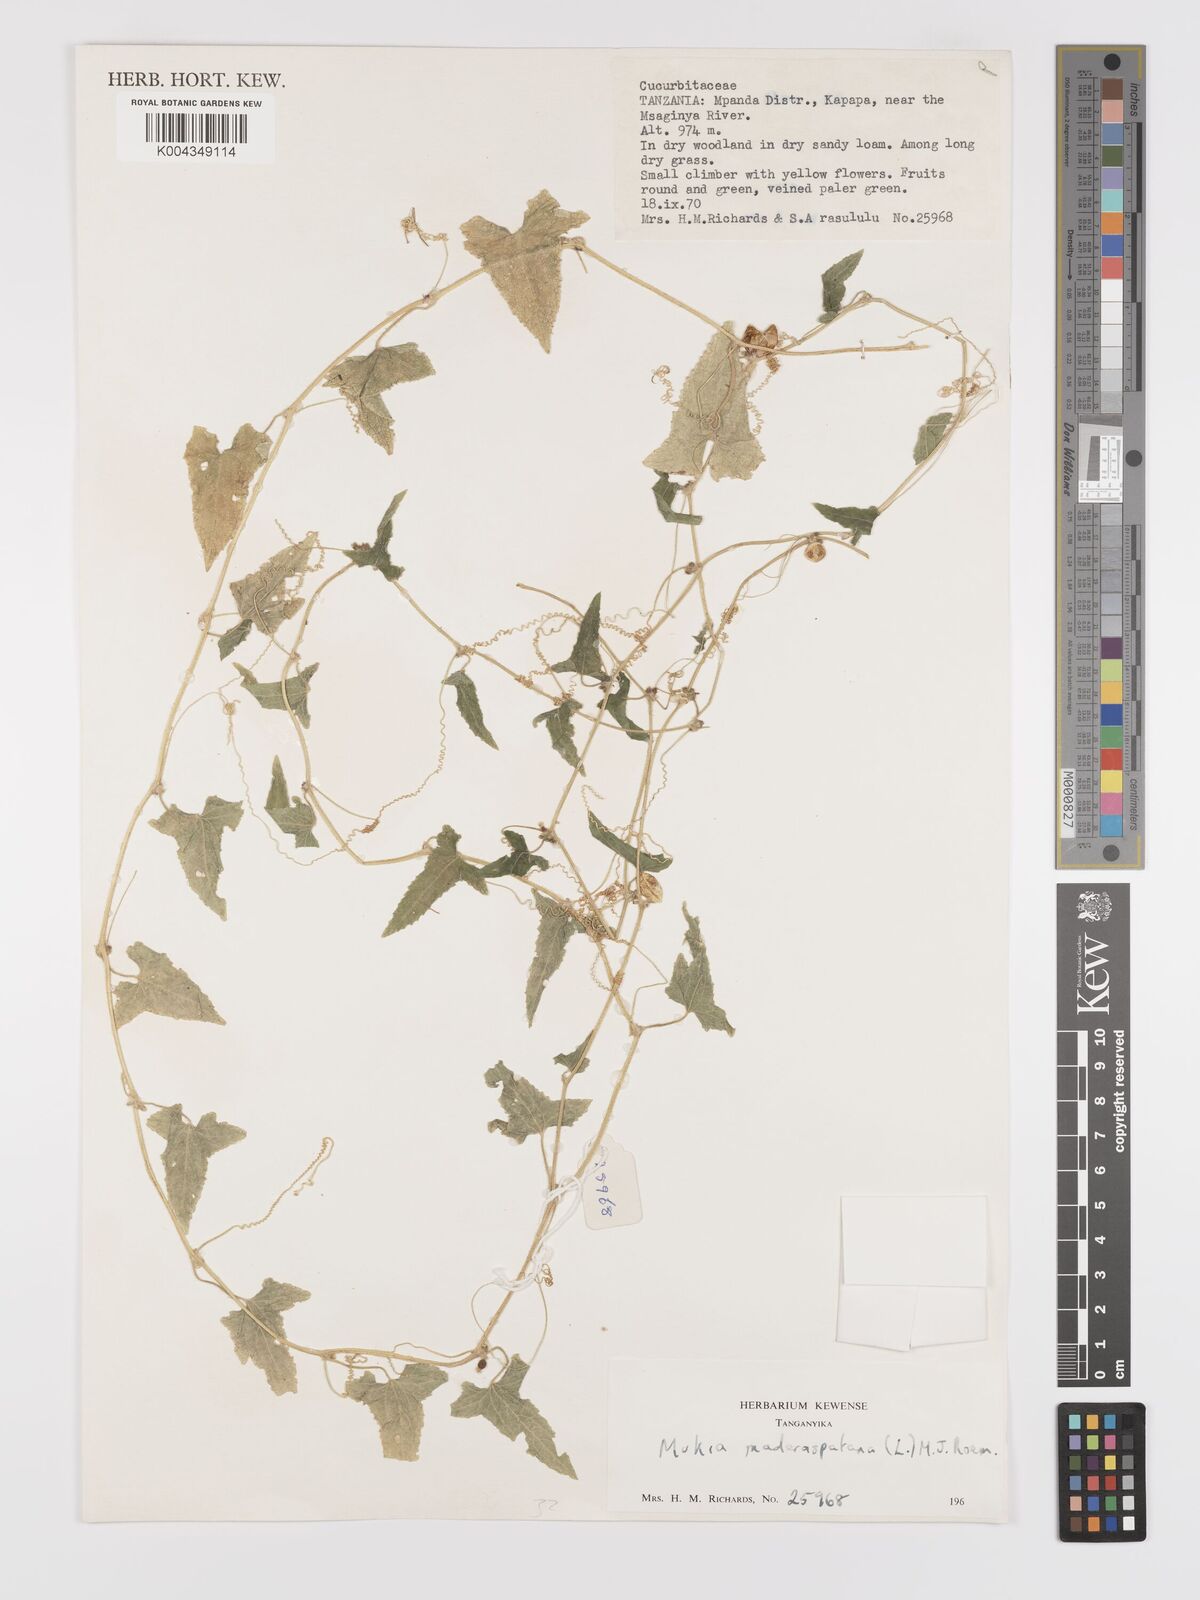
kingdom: Plantae
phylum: Tracheophyta
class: Magnoliopsida
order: Cucurbitales
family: Cucurbitaceae
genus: Cucumis
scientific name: Cucumis maderaspatanus
